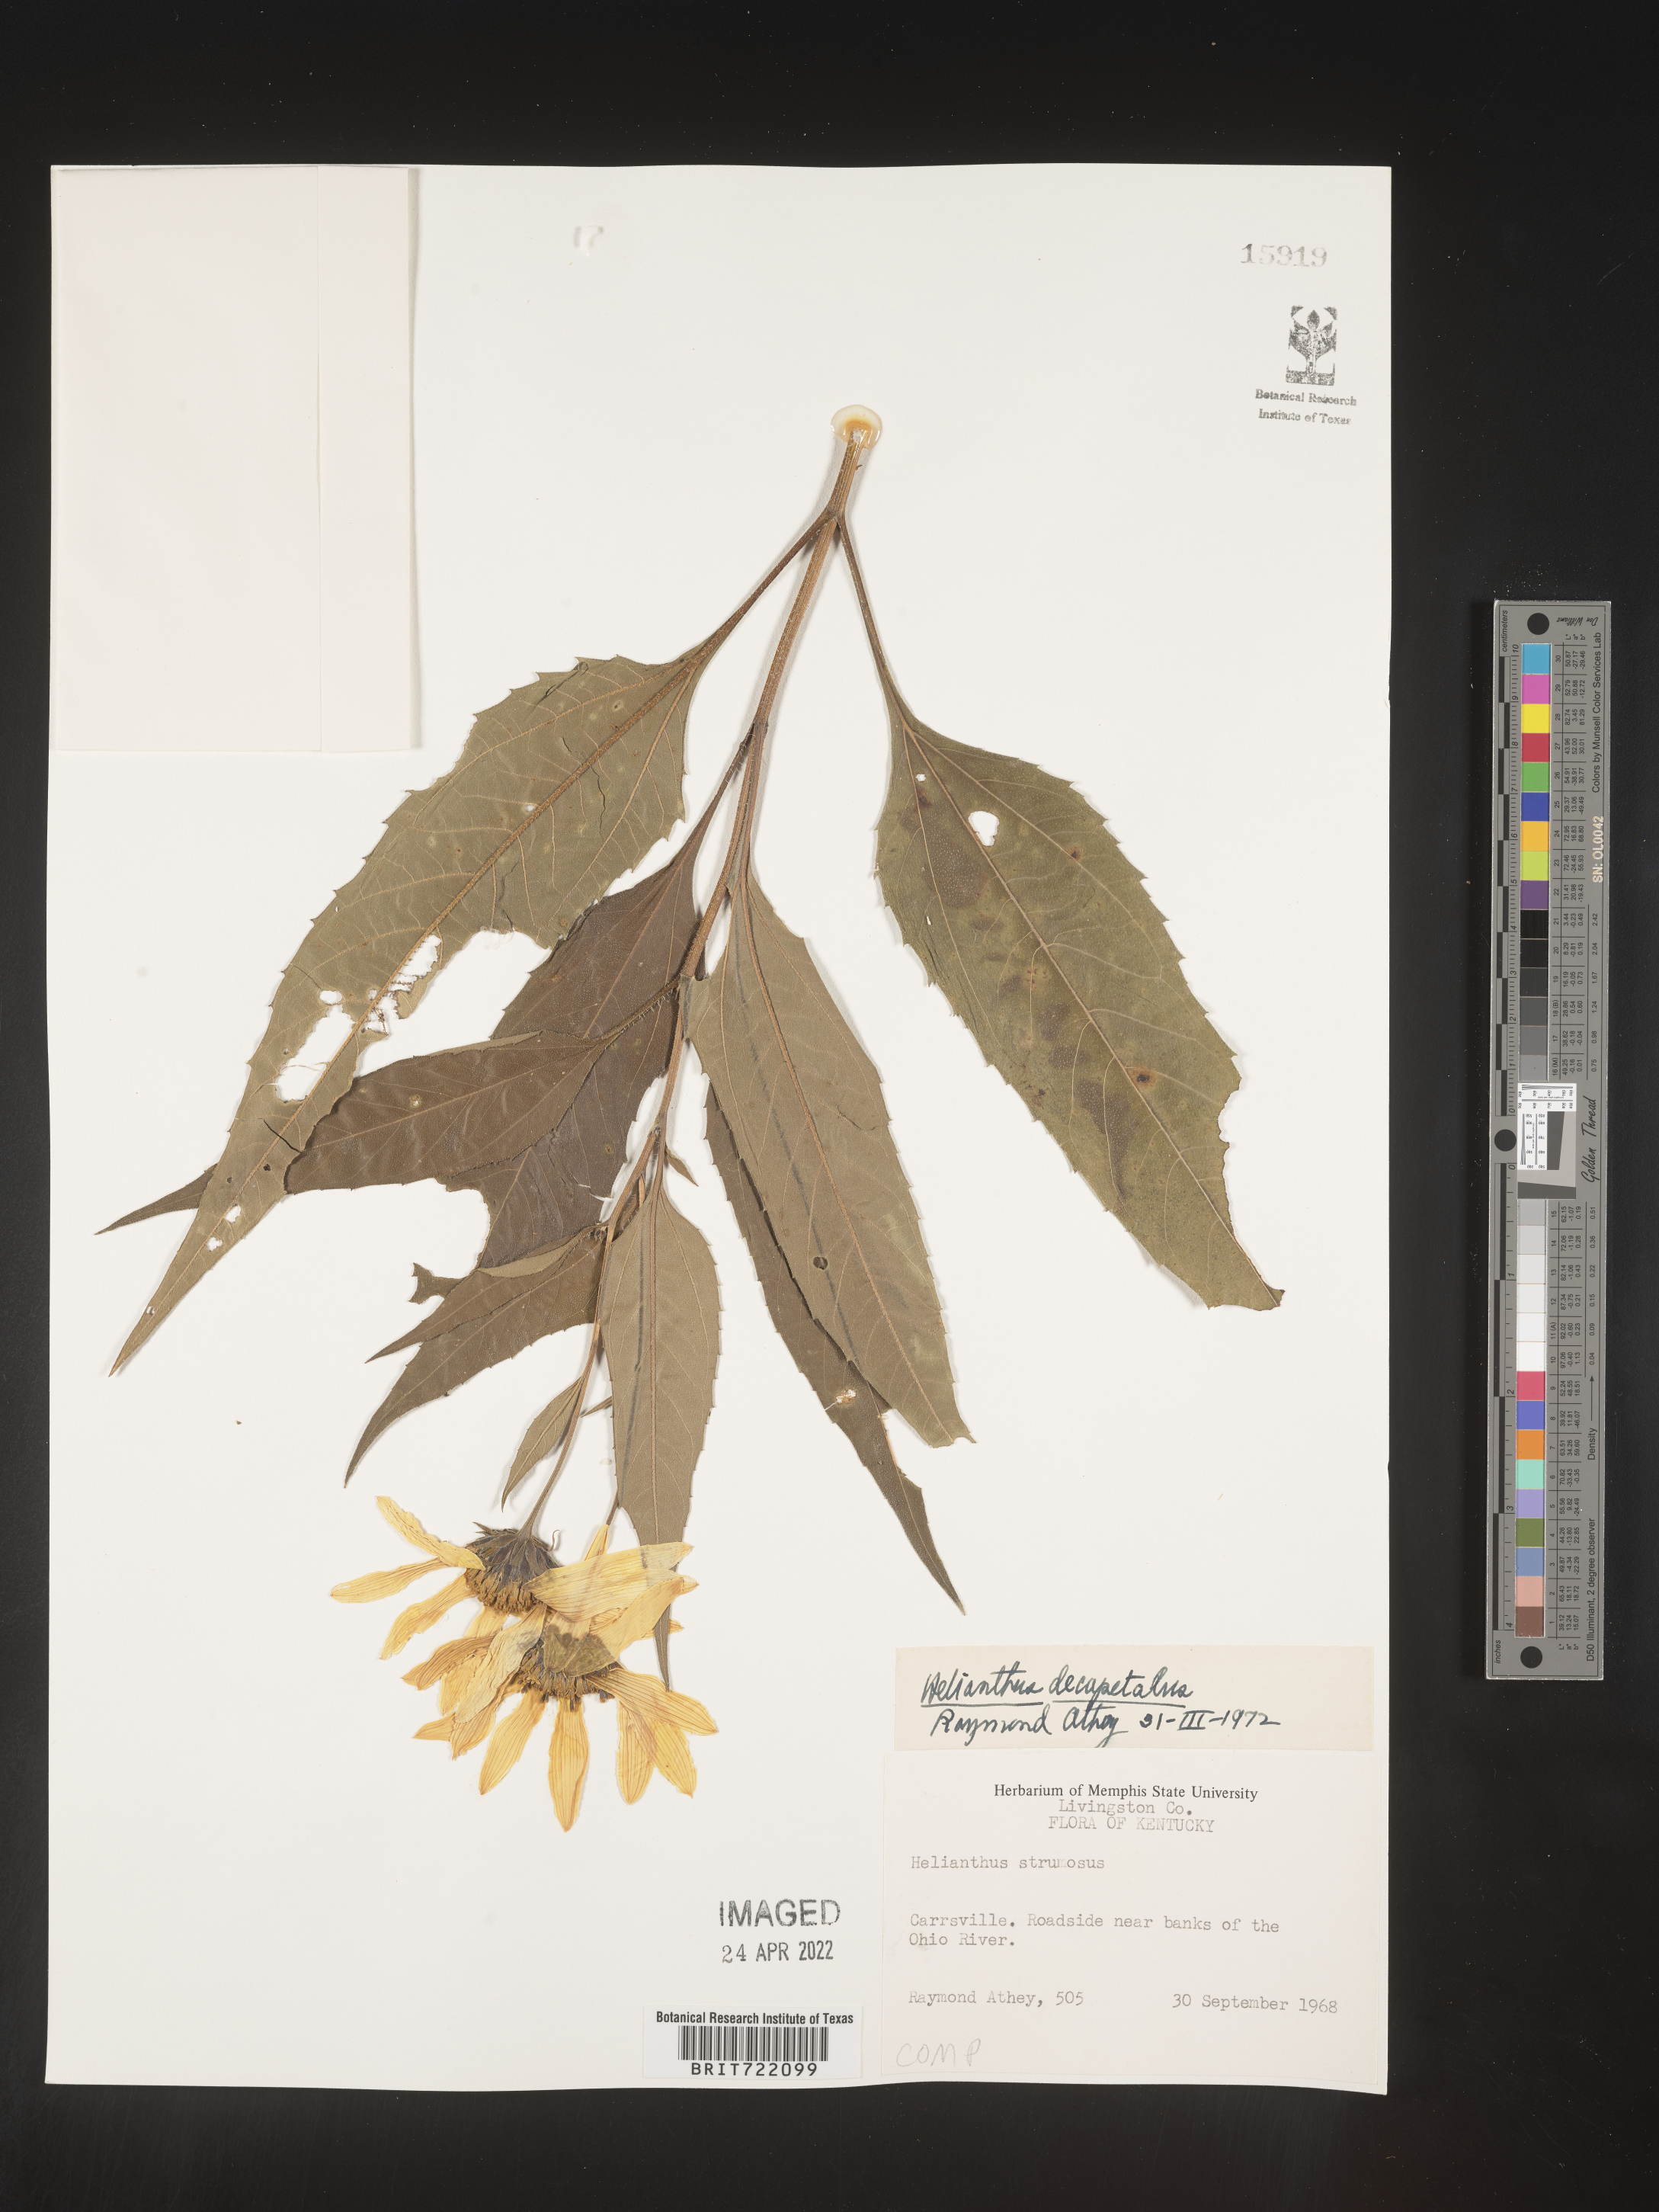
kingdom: Plantae
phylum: Tracheophyta
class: Magnoliopsida
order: Asterales
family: Asteraceae
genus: Helianthus
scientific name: Helianthus decapetalus
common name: Thin-leaved sunflower
